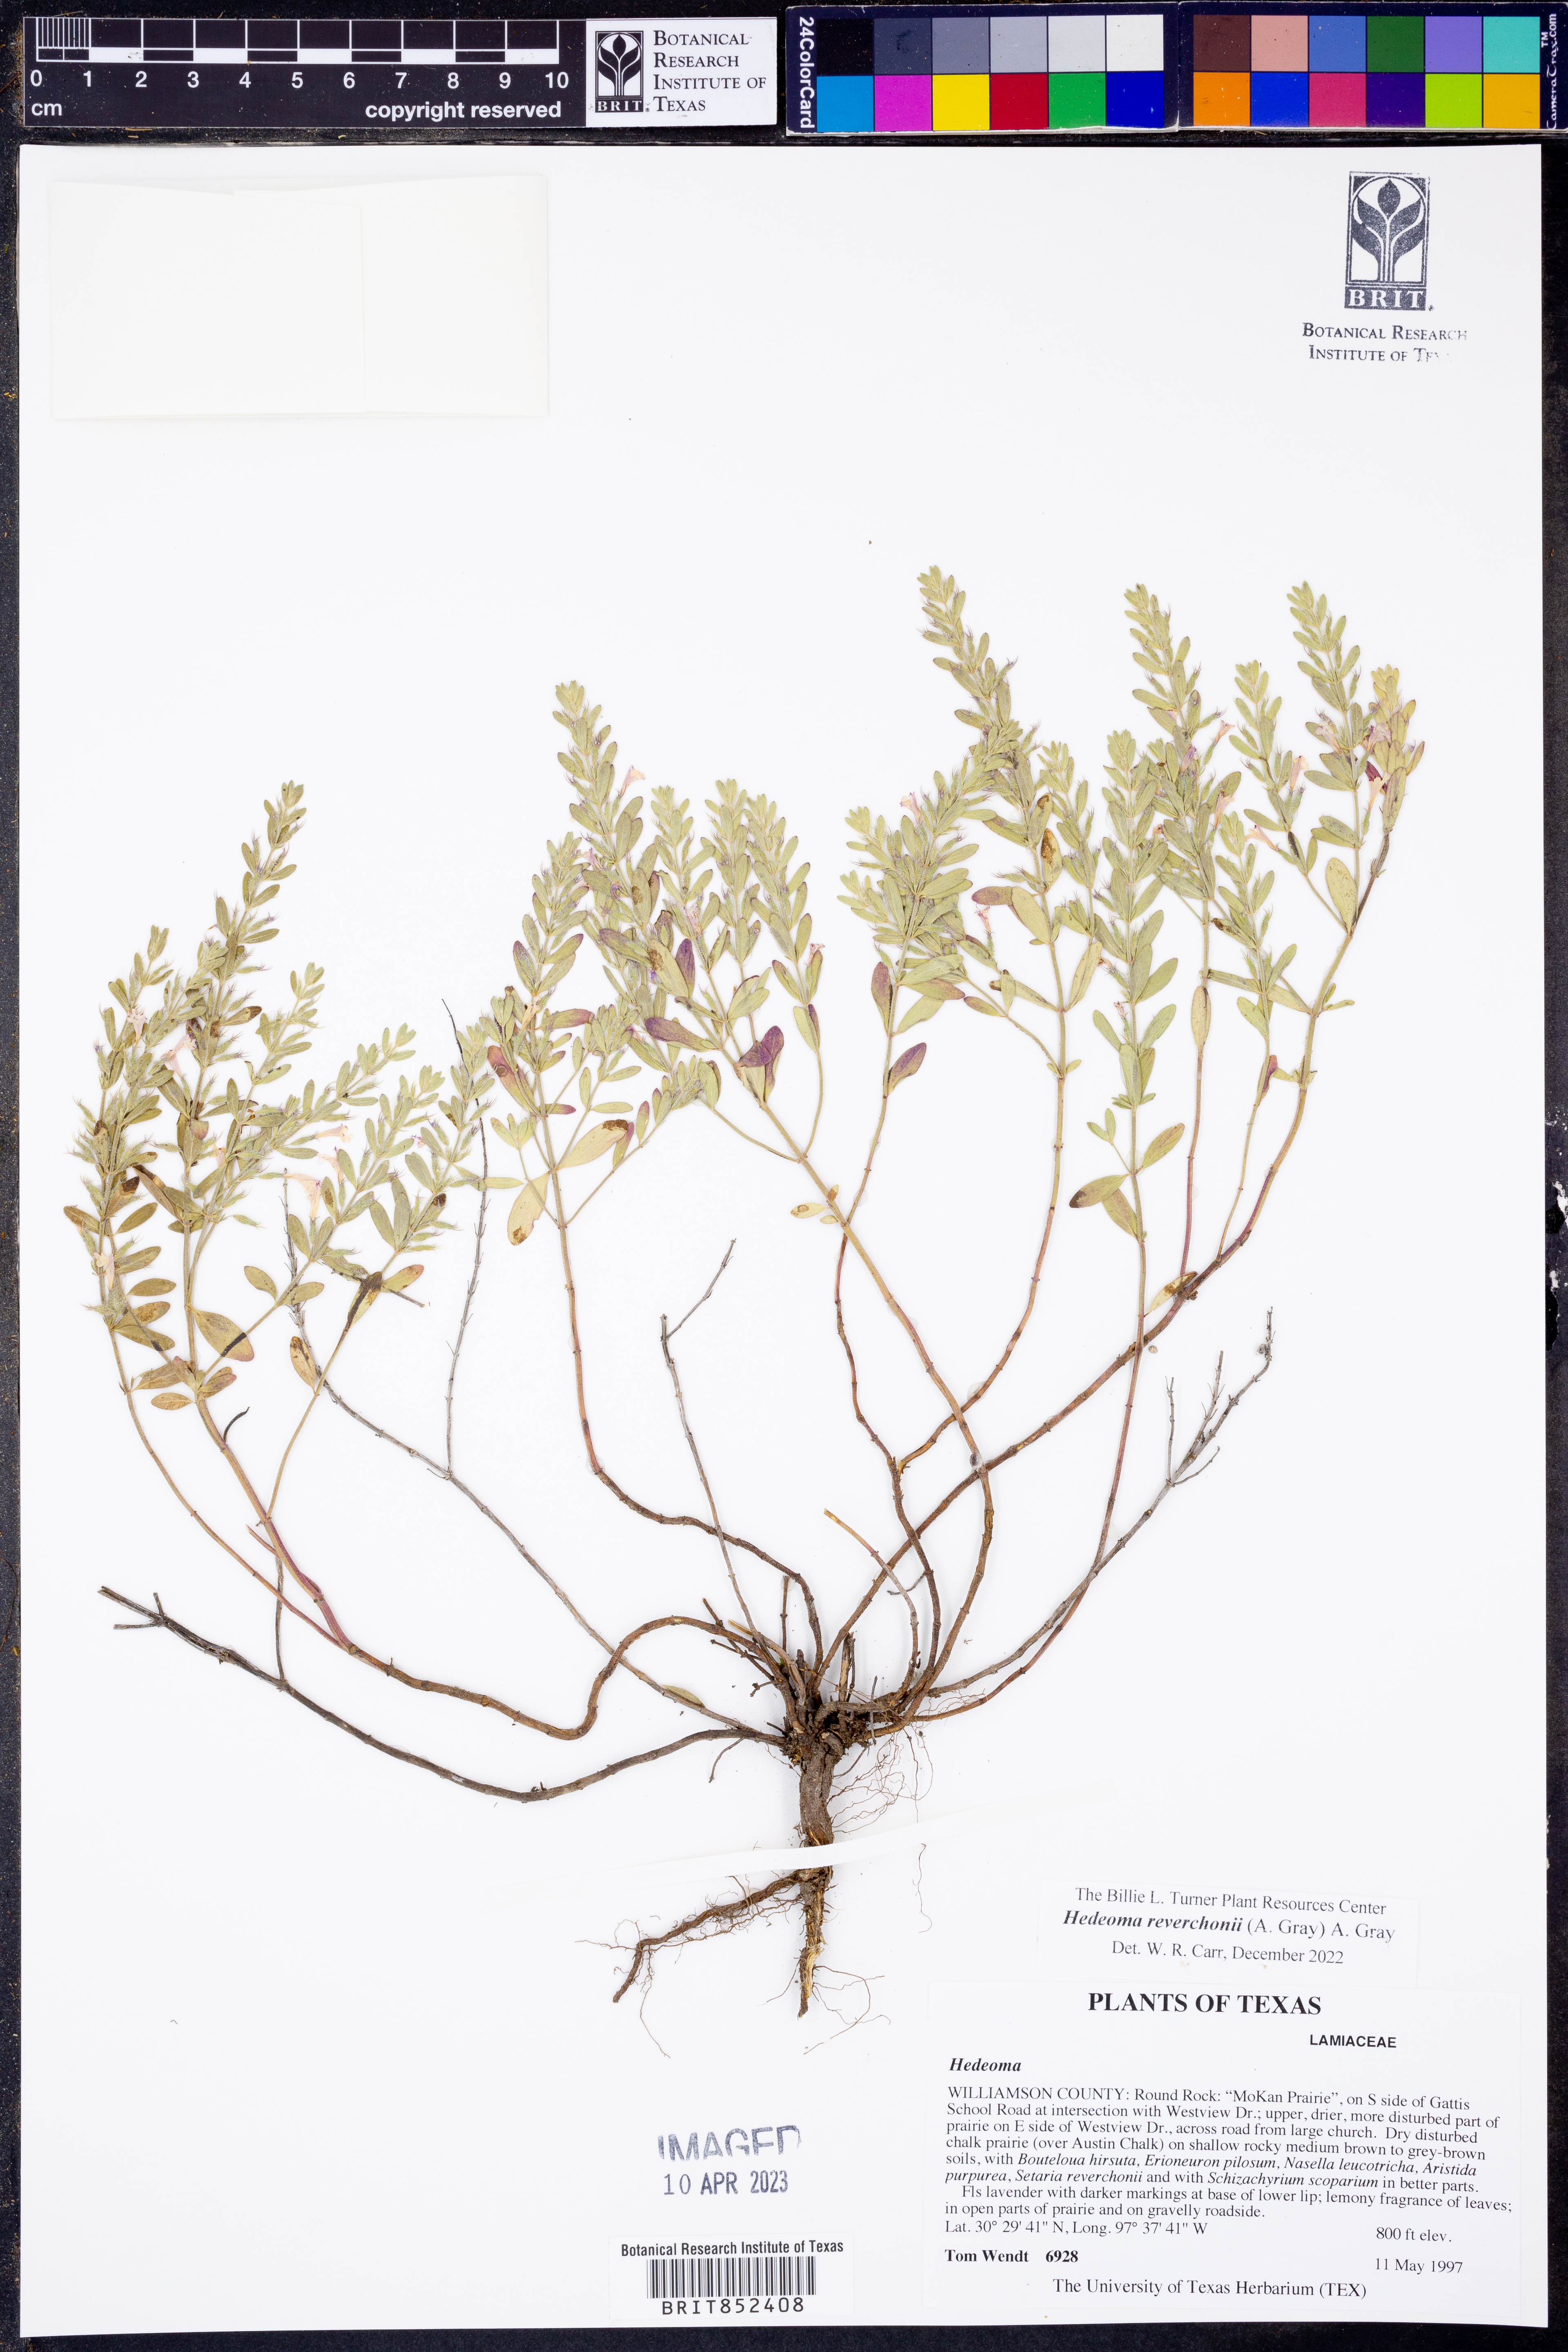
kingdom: Plantae
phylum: Tracheophyta
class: Magnoliopsida
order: Lamiales
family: Lamiaceae
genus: Hedeoma
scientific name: Hedeoma reverchonii
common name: Reverchon's false penny-royal
